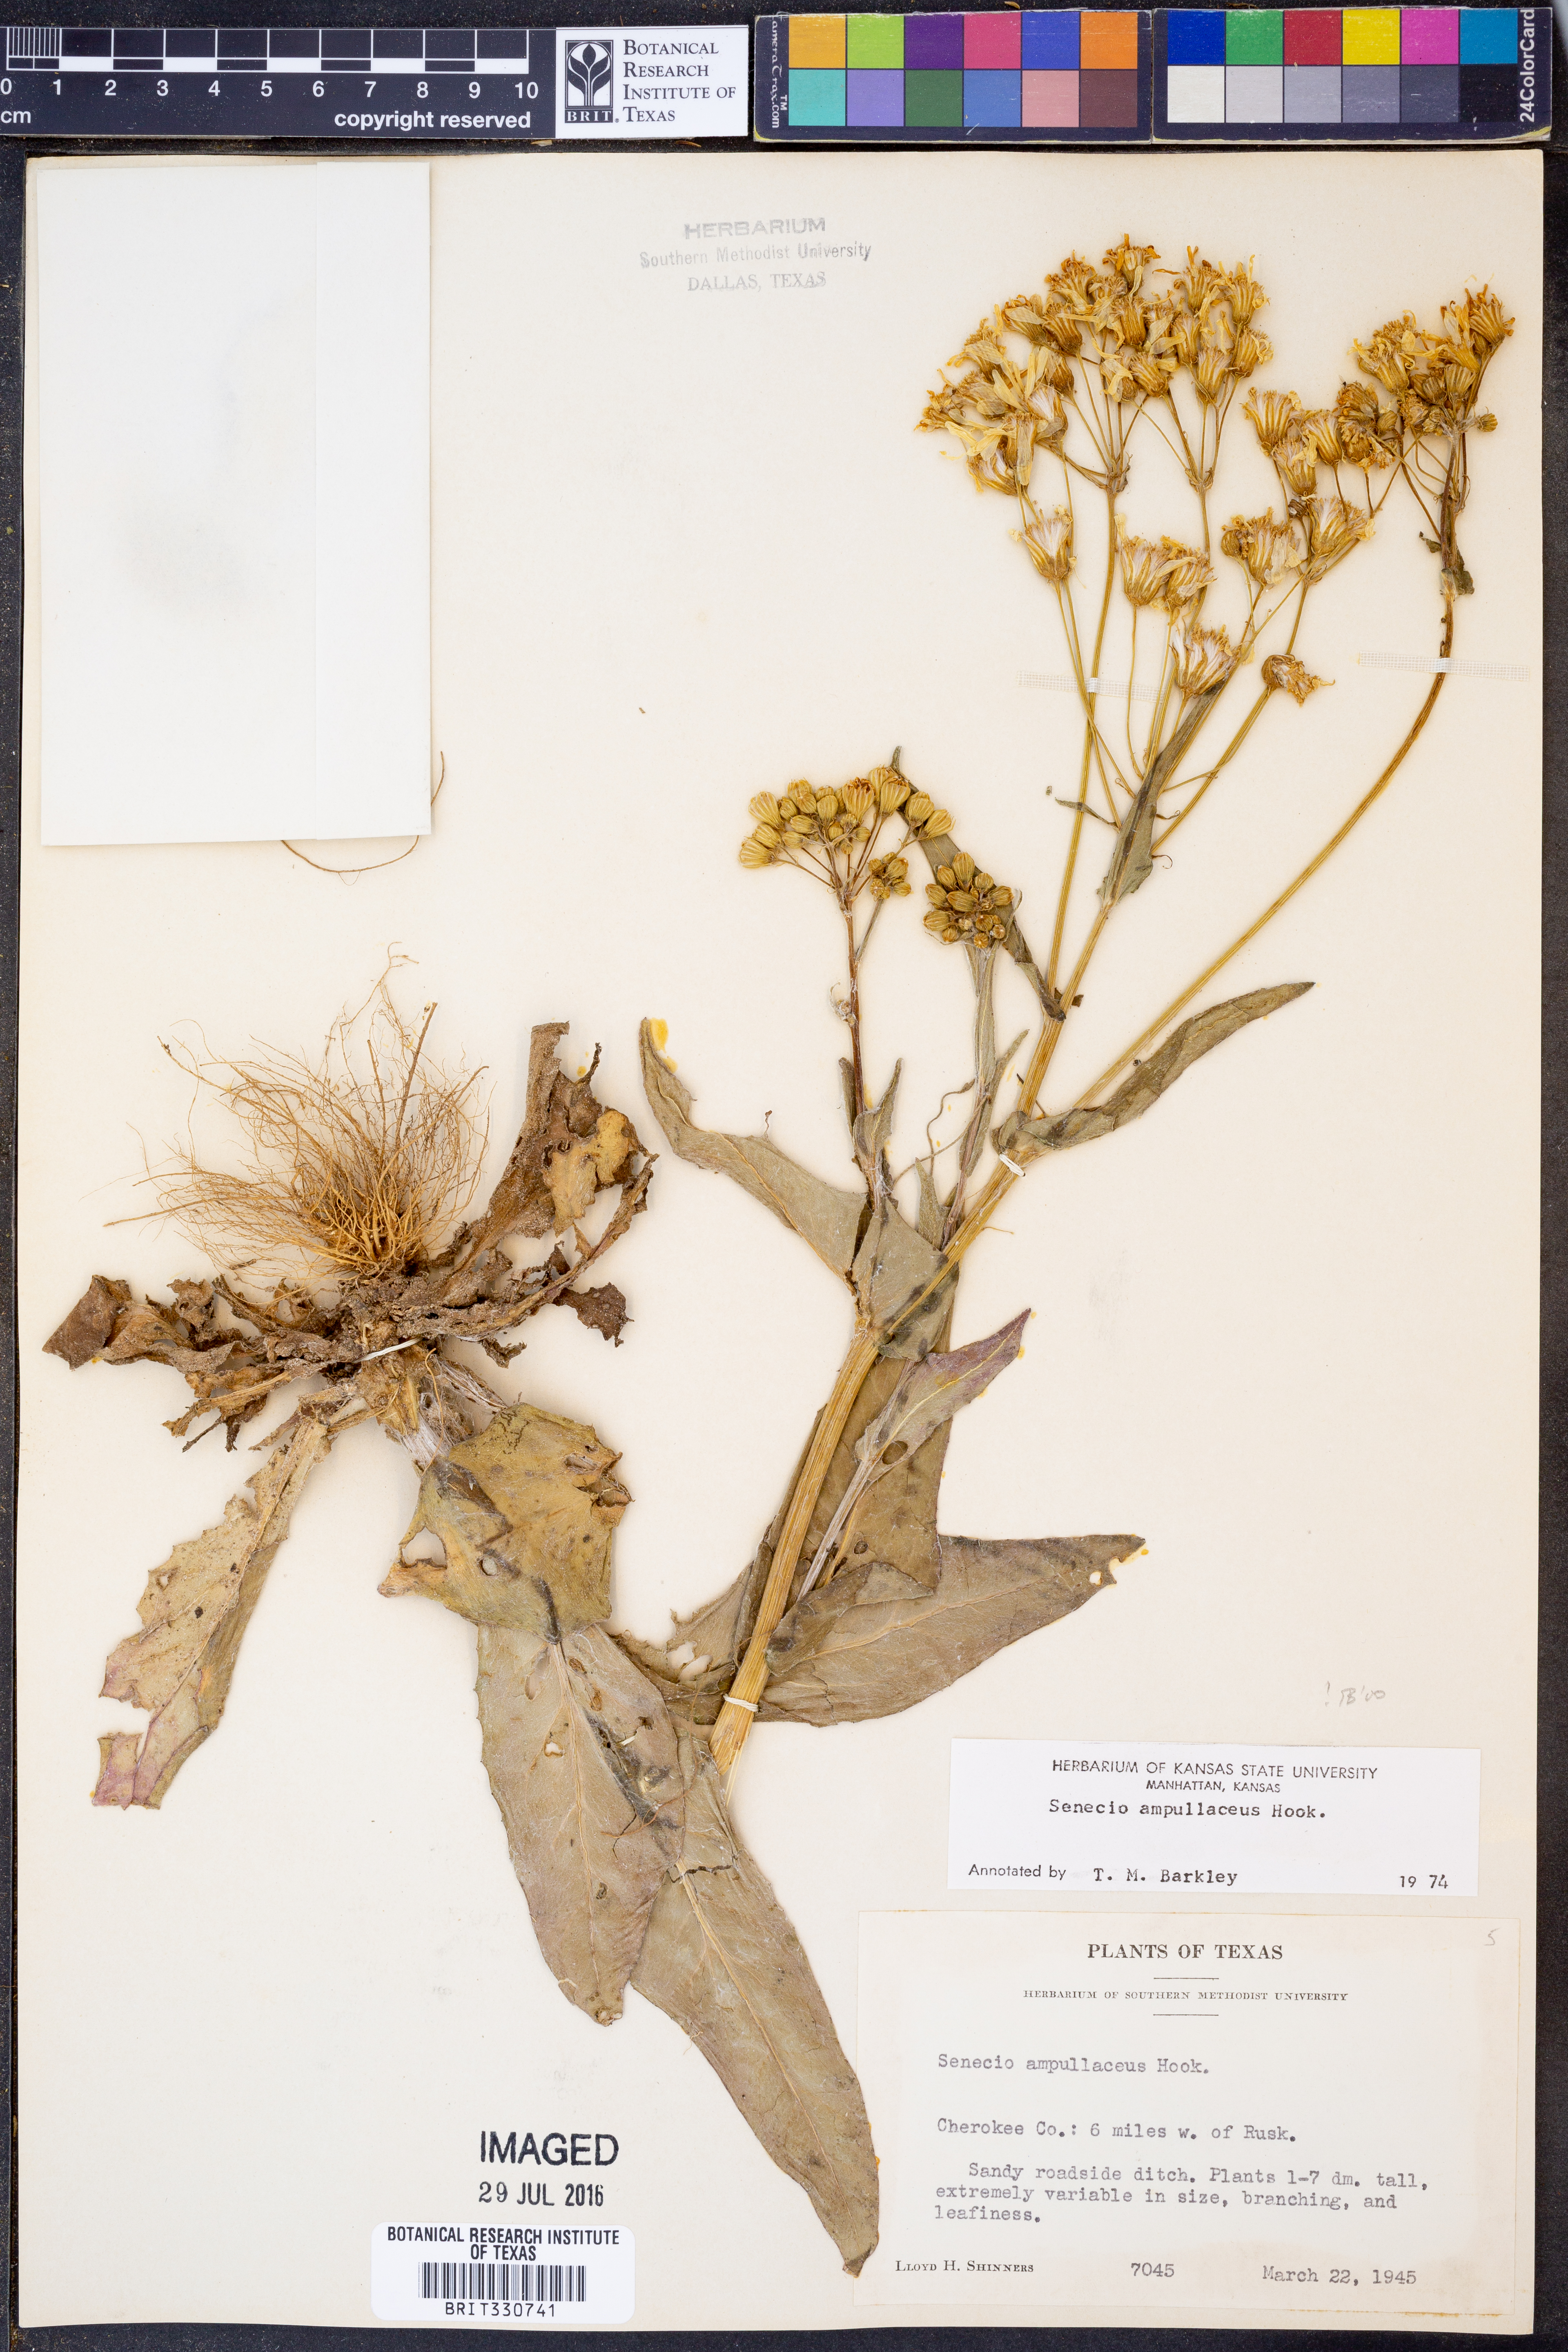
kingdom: Plantae
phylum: Tracheophyta
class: Magnoliopsida
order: Asterales
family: Asteraceae
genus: Senecio
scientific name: Senecio ampullaceus
